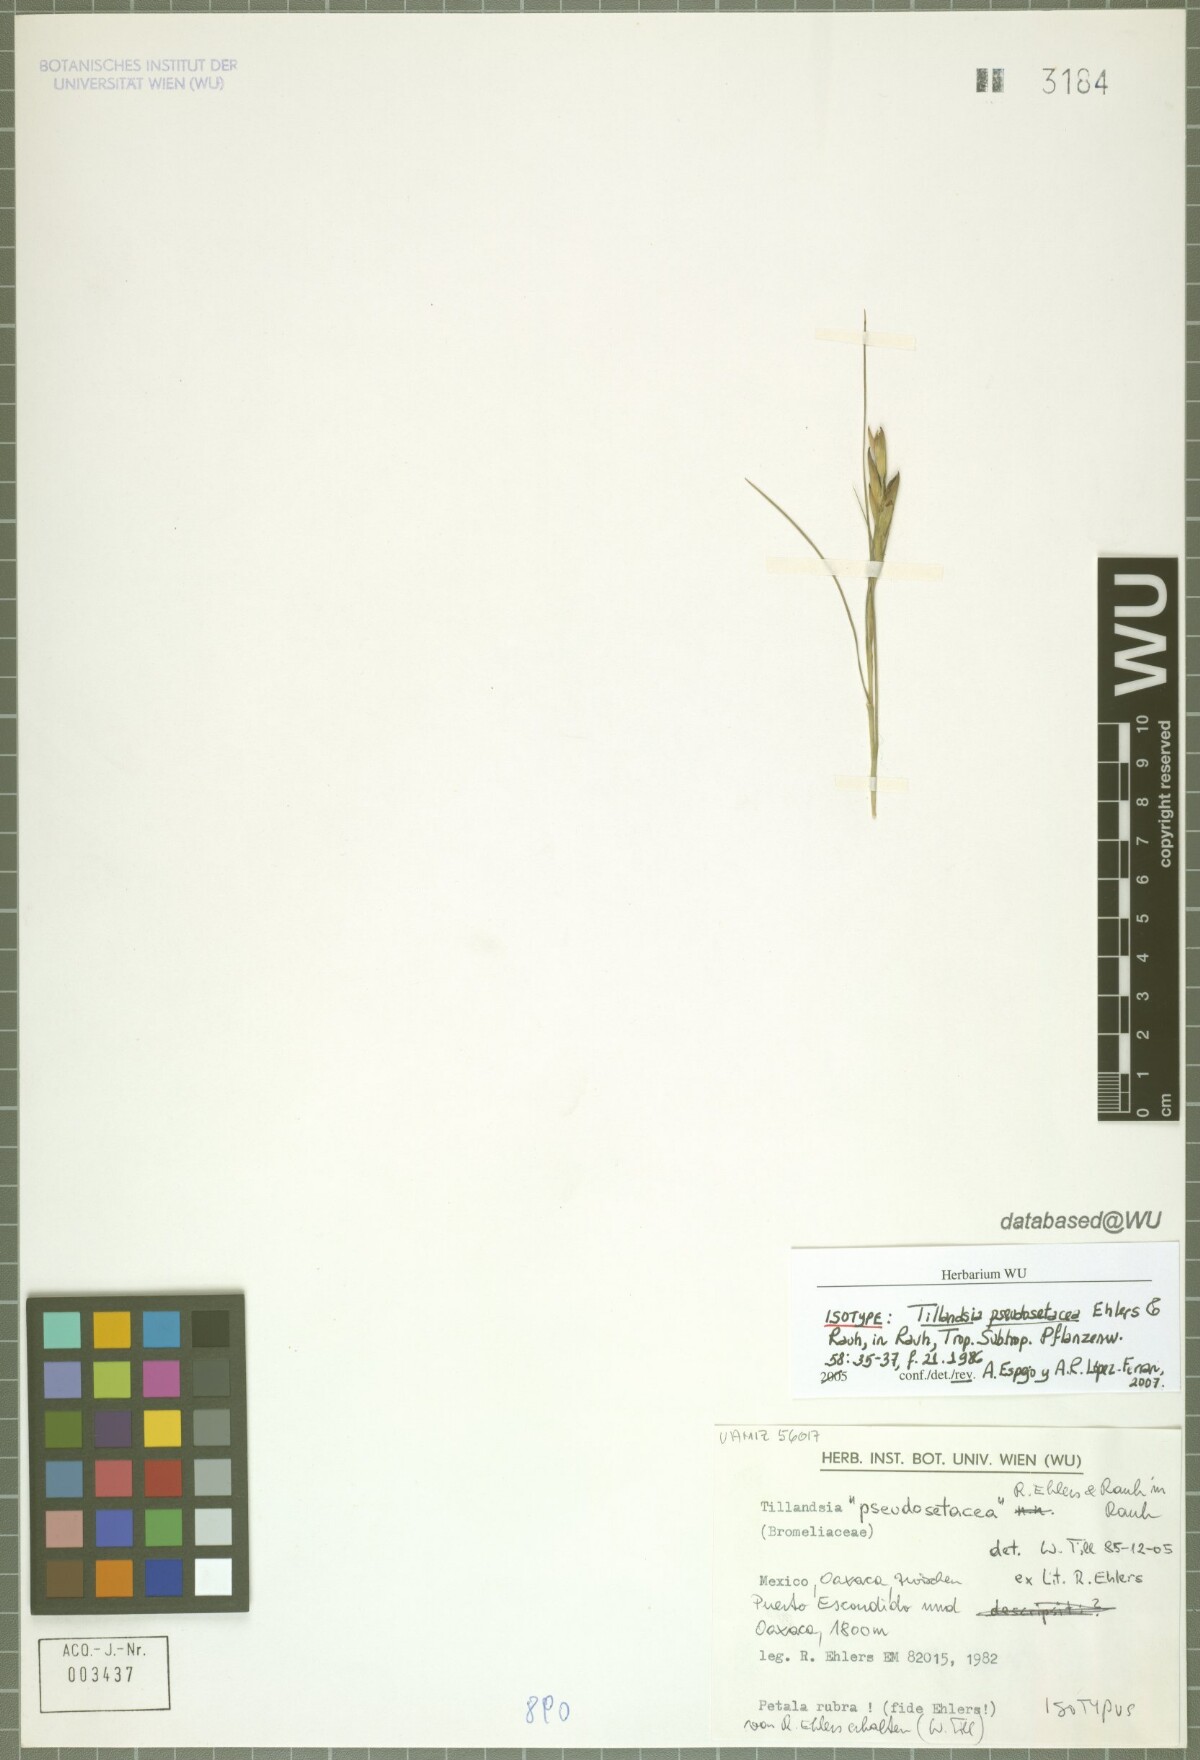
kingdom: Plantae
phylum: Tracheophyta
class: Liliopsida
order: Poales
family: Bromeliaceae
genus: Tillandsia
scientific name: Tillandsia pseudosetacea
